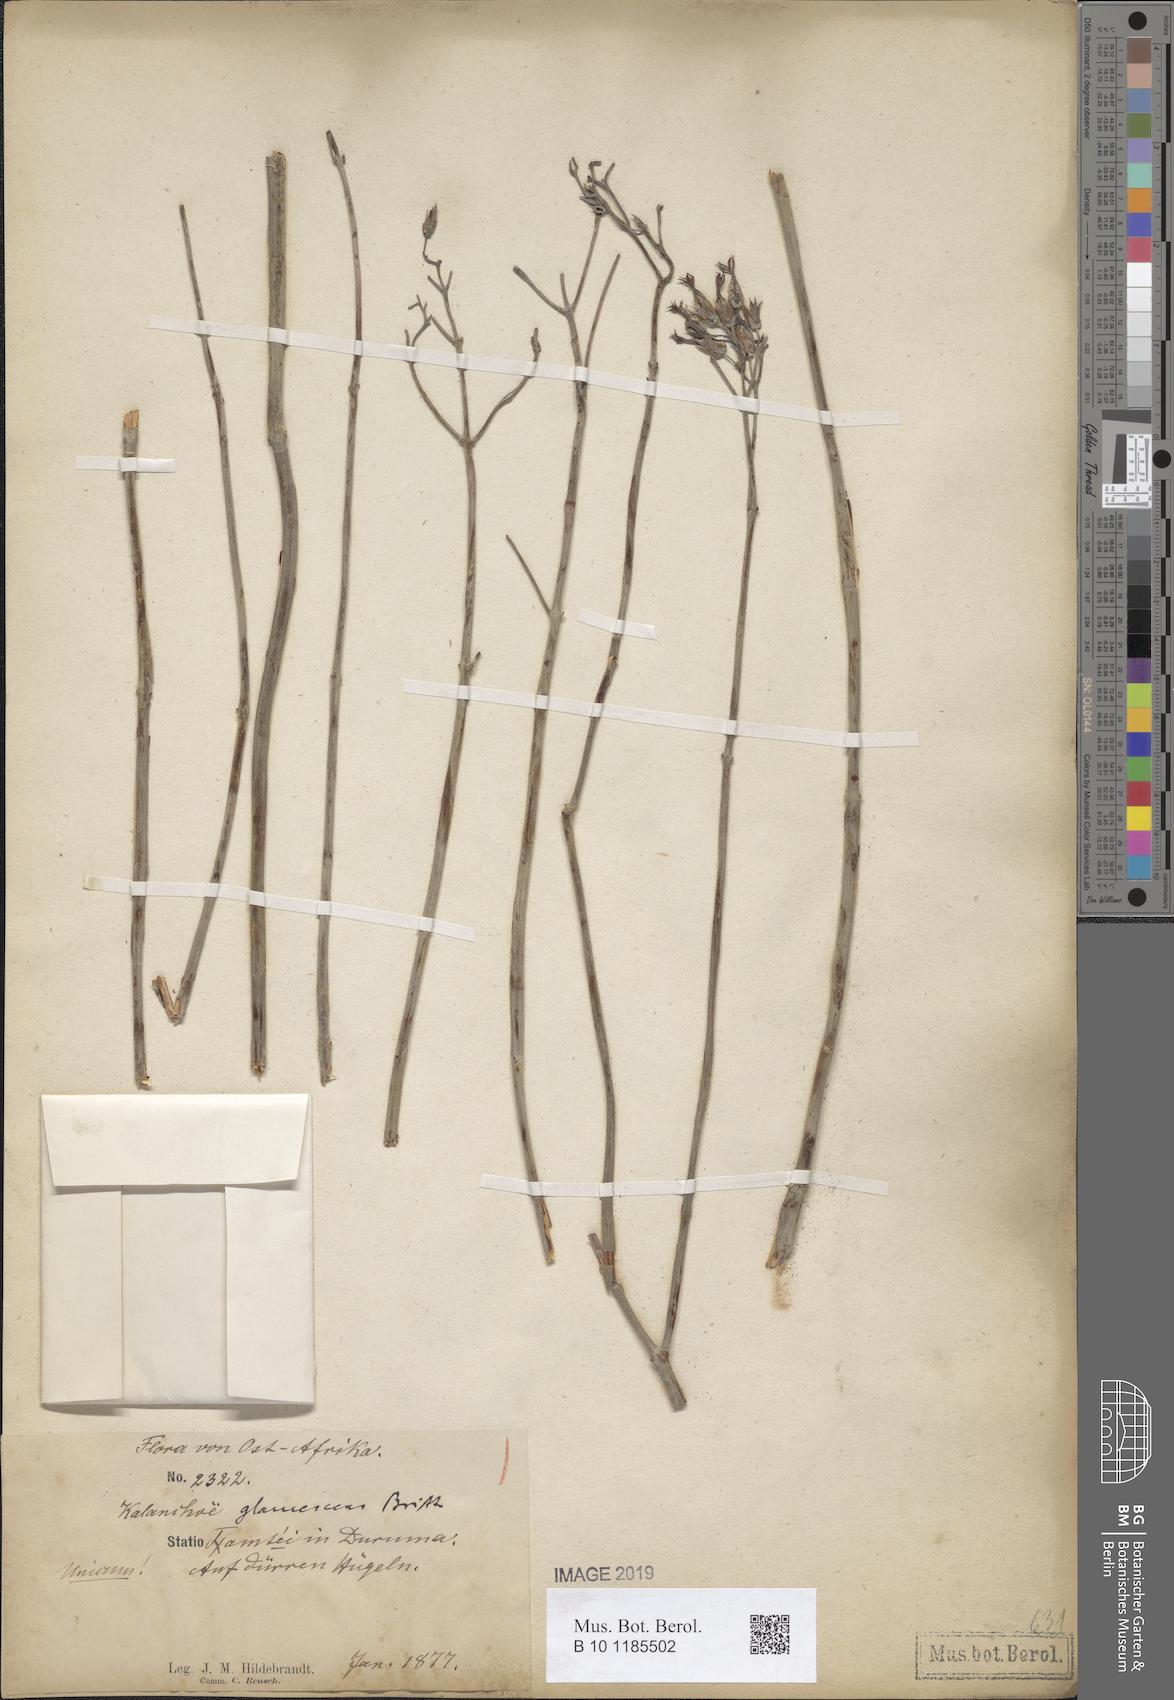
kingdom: Plantae
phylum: Tracheophyta
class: Magnoliopsida
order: Saxifragales
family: Crassulaceae
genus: Kalanchoe
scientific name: Kalanchoe glaucescens
